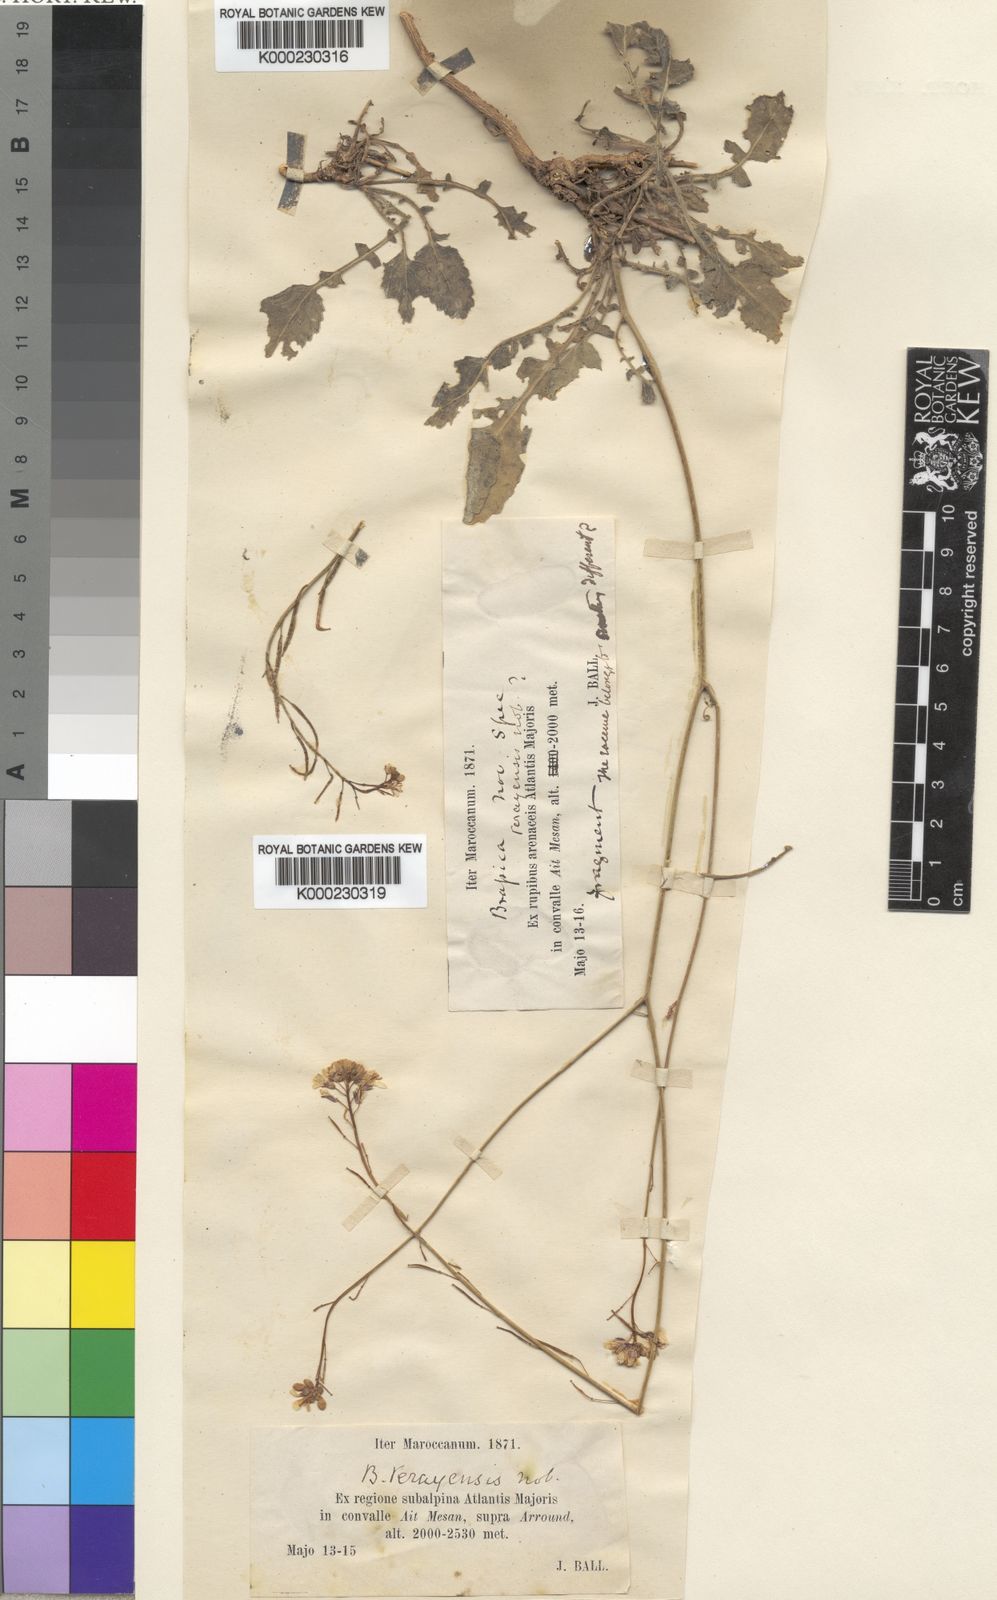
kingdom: Plantae
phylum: Tracheophyta
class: Magnoliopsida
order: Brassicales
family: Brassicaceae
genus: Erucastrum
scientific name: Erucastrum elatum
